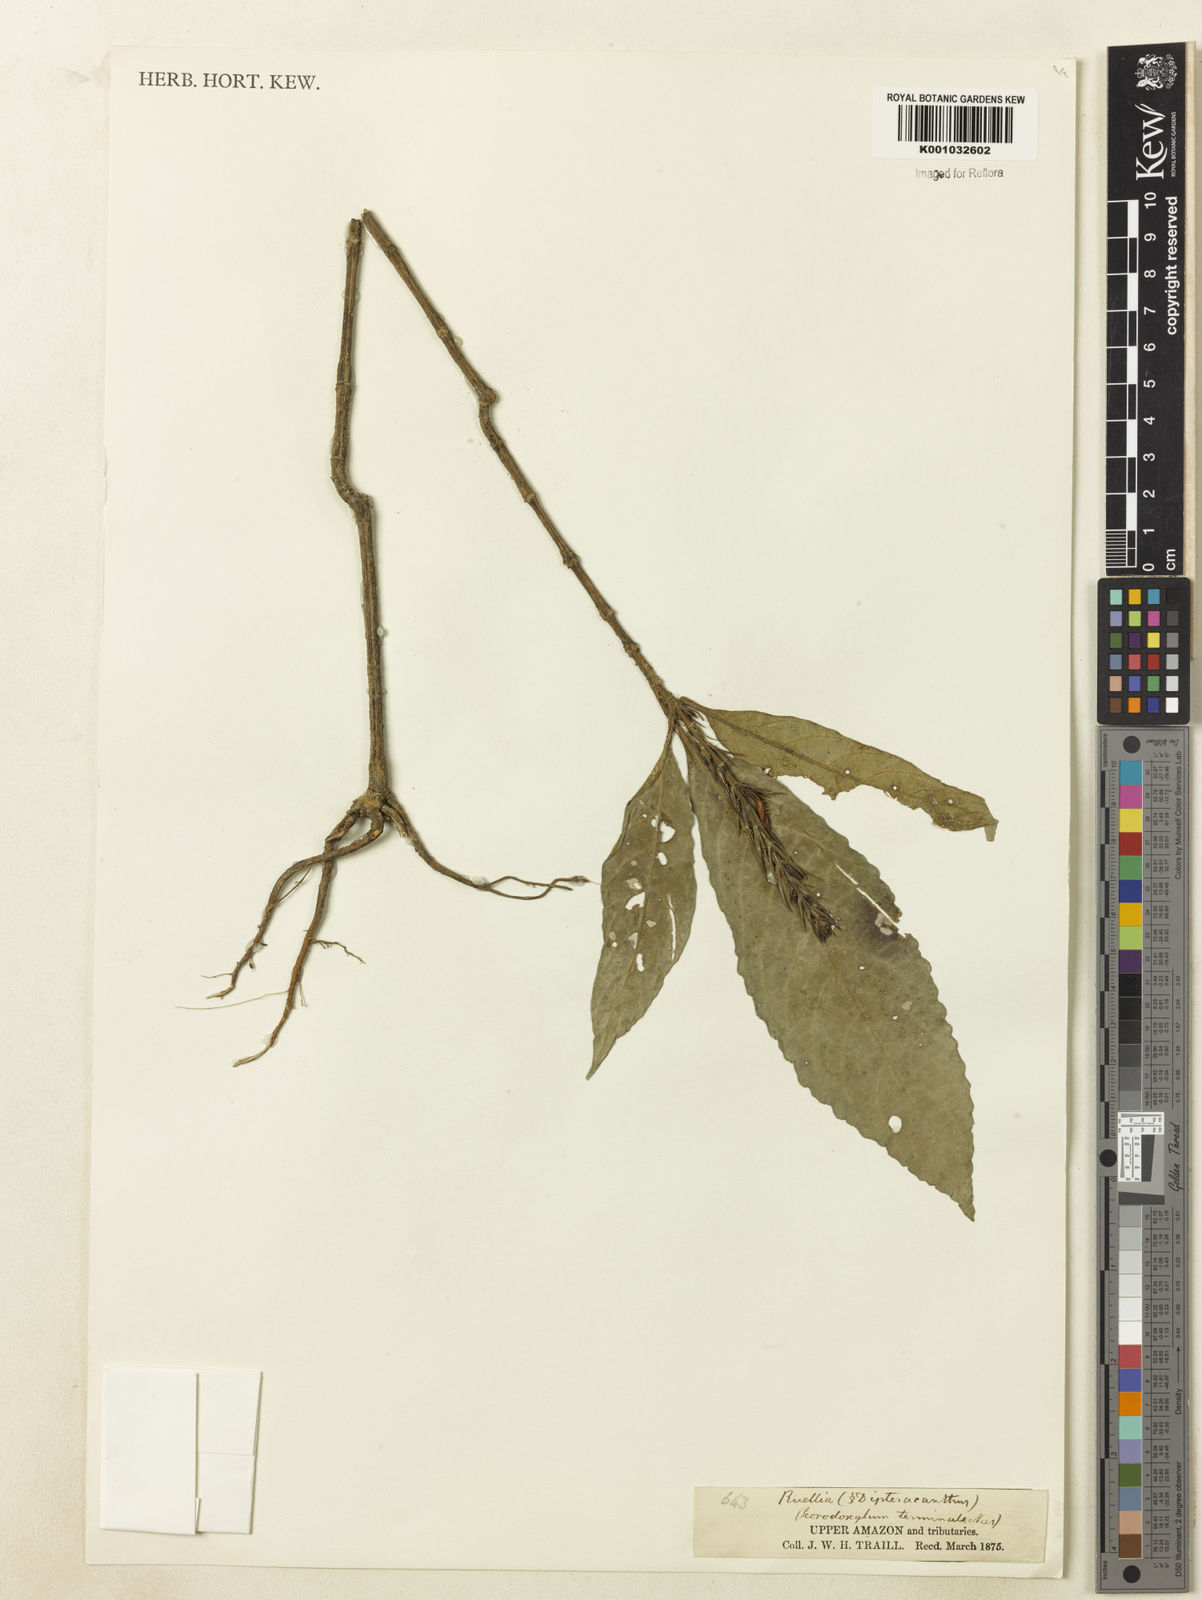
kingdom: Plantae
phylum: Tracheophyta
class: Magnoliopsida
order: Lamiales
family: Acanthaceae
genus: Ruellia
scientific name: Ruellia proxima
